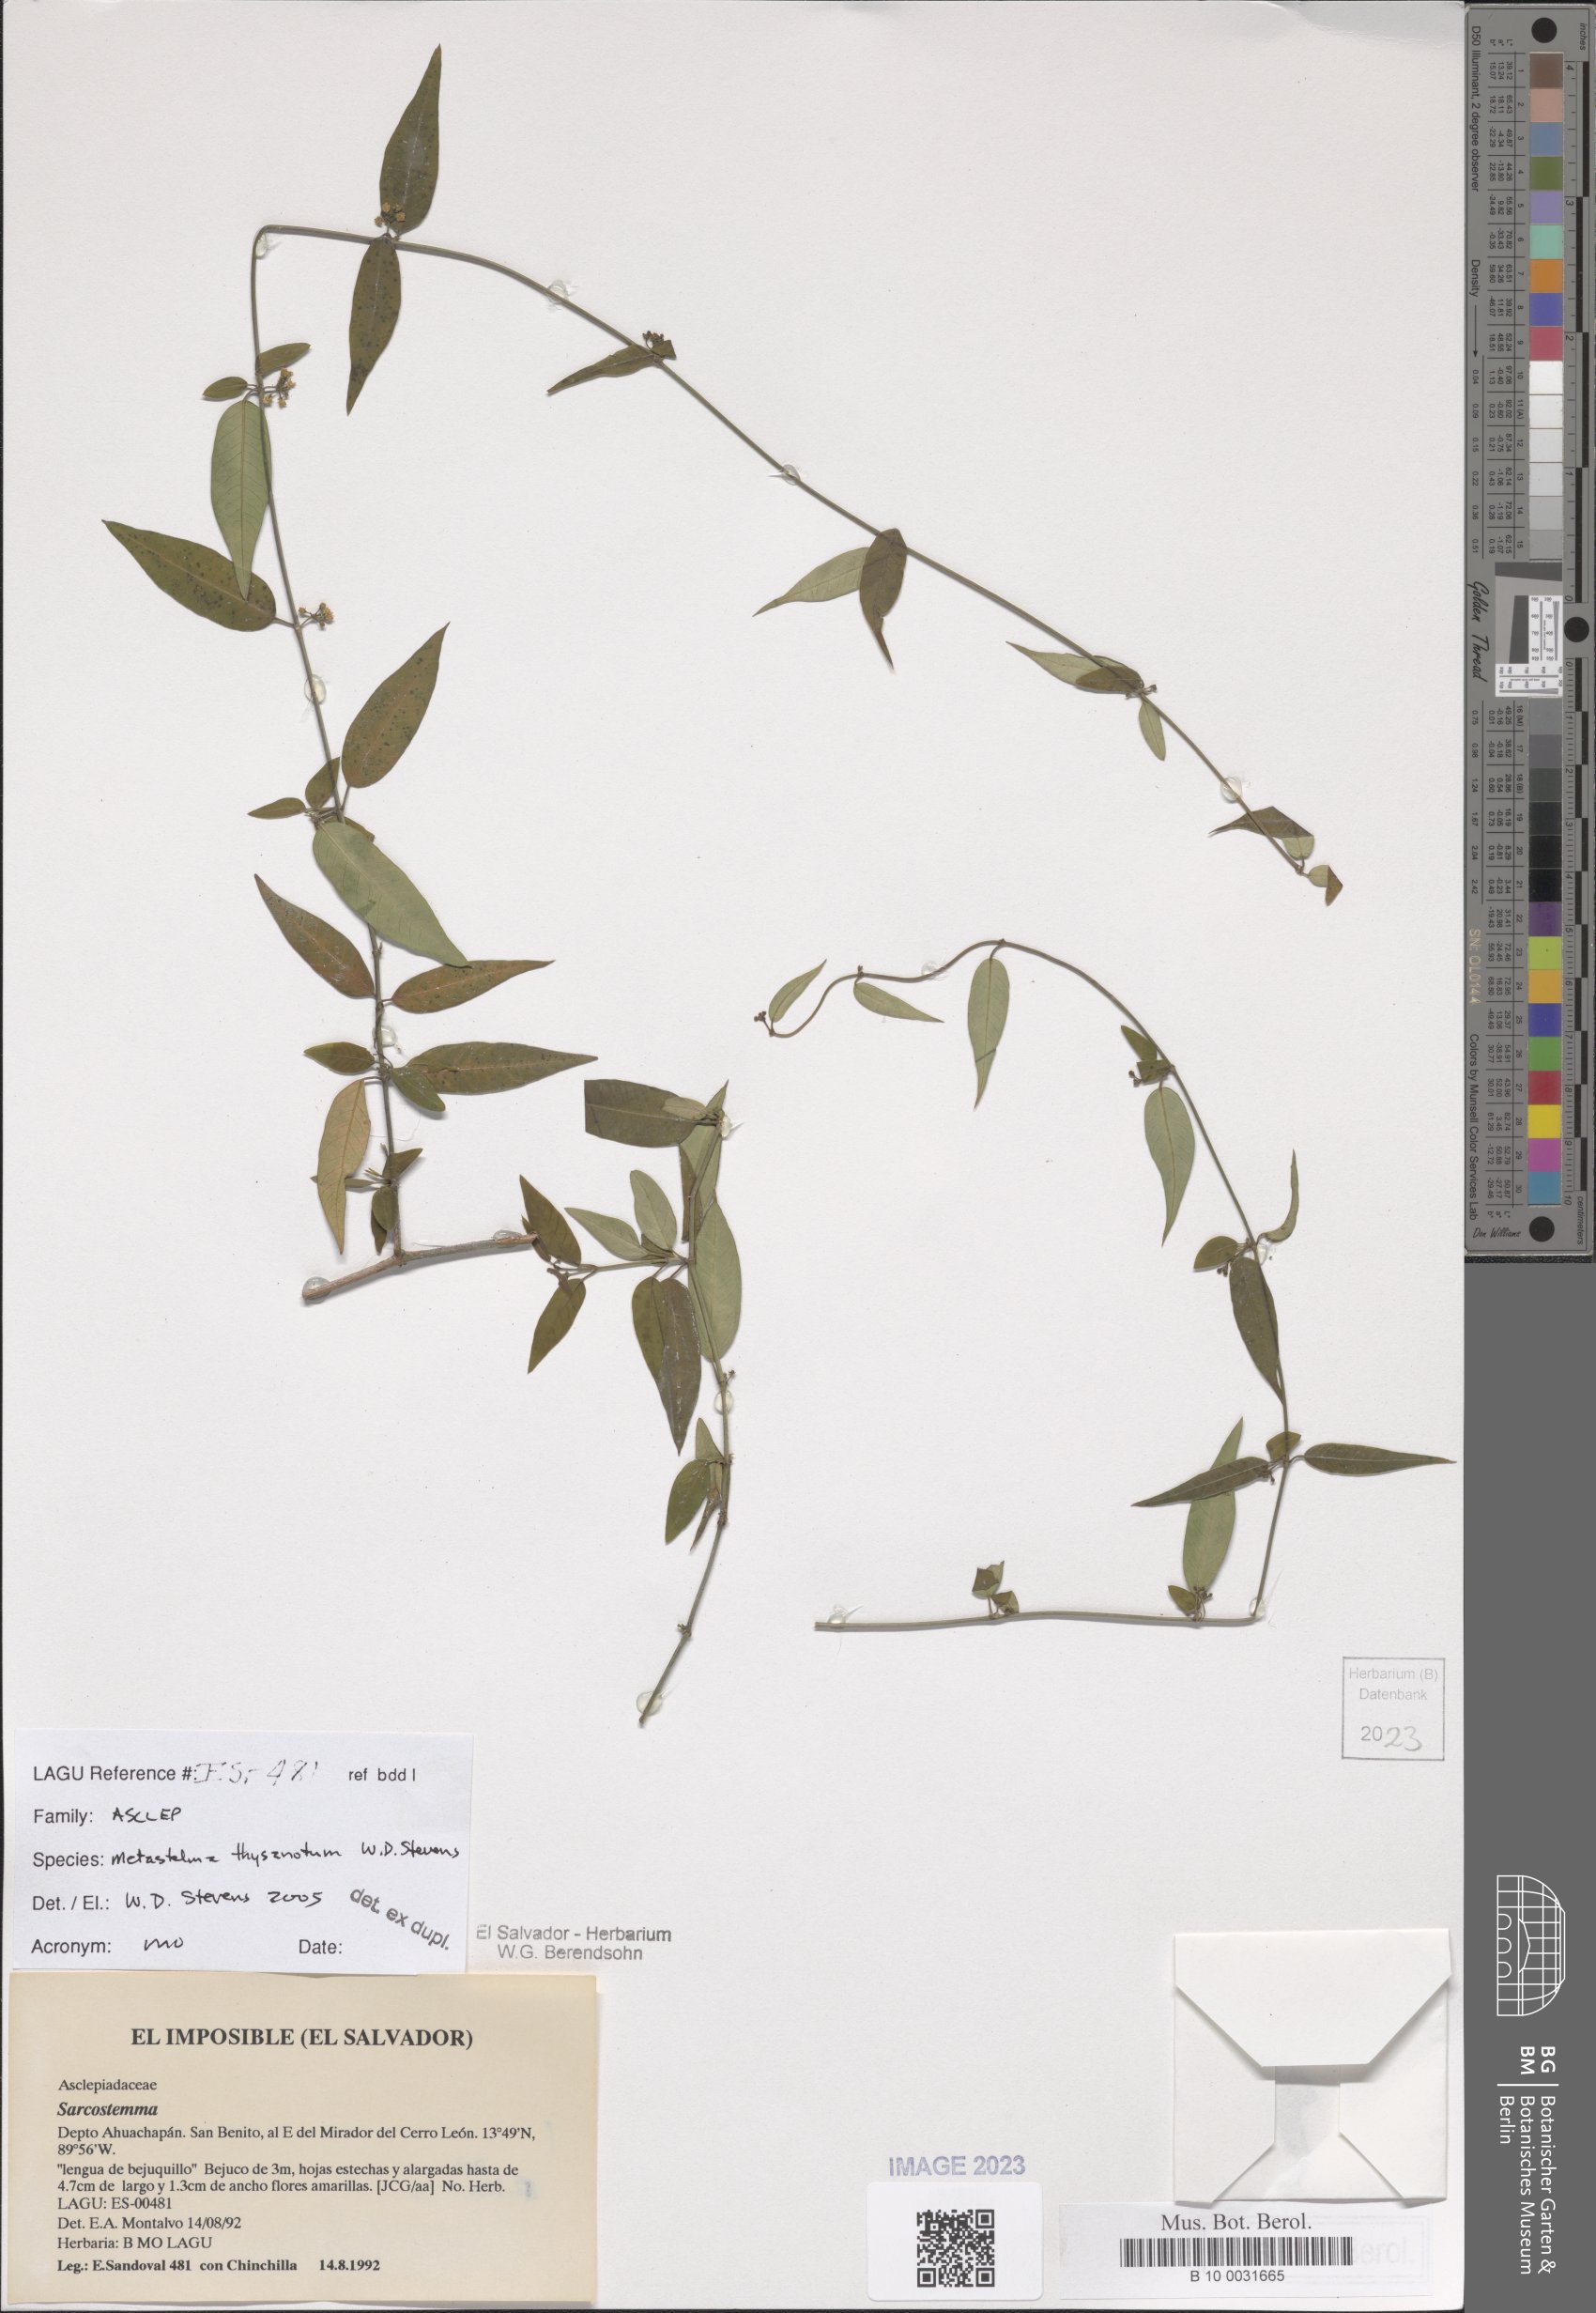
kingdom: Plantae
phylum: Tracheophyta
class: Magnoliopsida
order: Gentianales
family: Apocynaceae
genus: Metastelma
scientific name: Metastelma thysanotum
